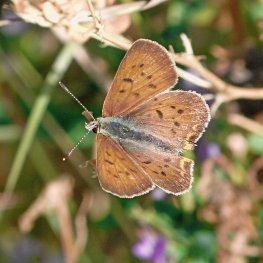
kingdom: Animalia
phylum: Arthropoda
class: Insecta
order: Lepidoptera
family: Sesiidae
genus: Sesia
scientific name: Sesia Lycaena helloides
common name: Purplish Copper
